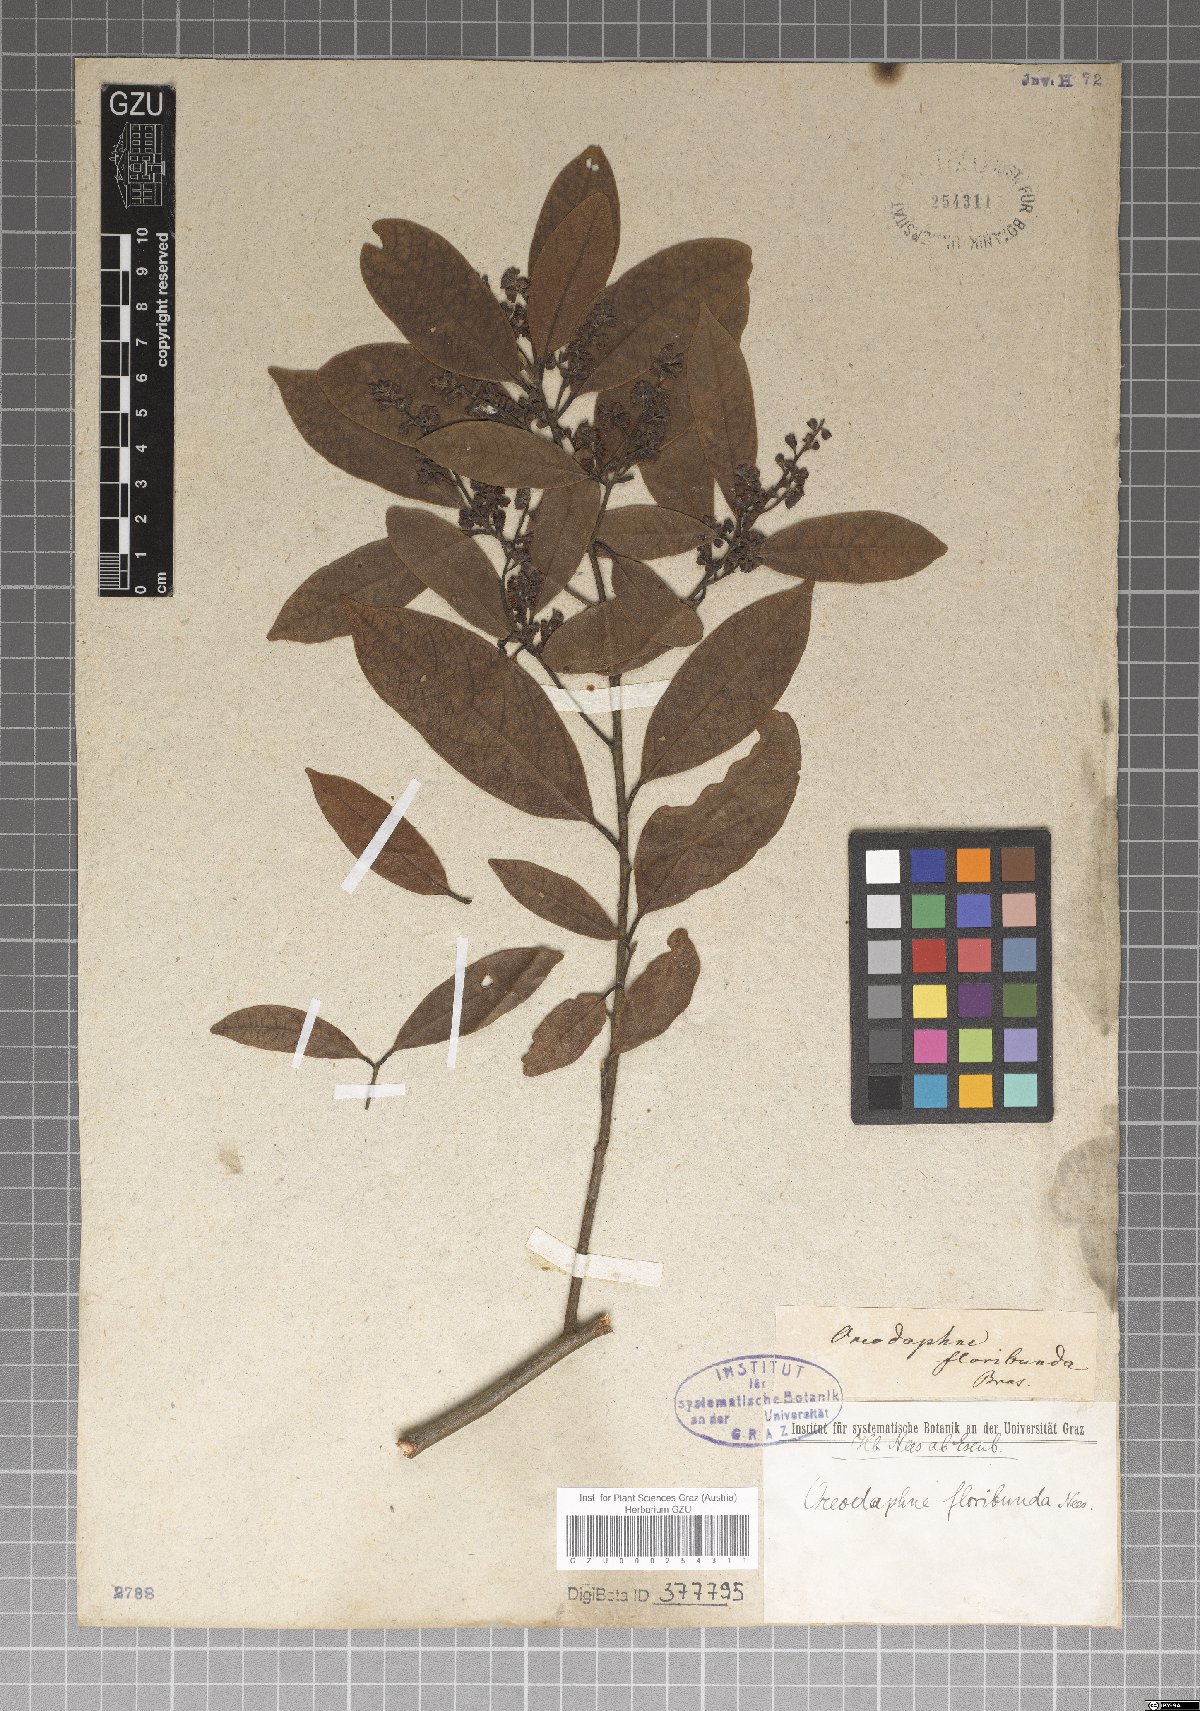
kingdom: Plantae
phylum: Tracheophyta
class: Magnoliopsida
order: Laurales
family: Lauraceae
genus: Ocotea
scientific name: Ocotea floribunda
